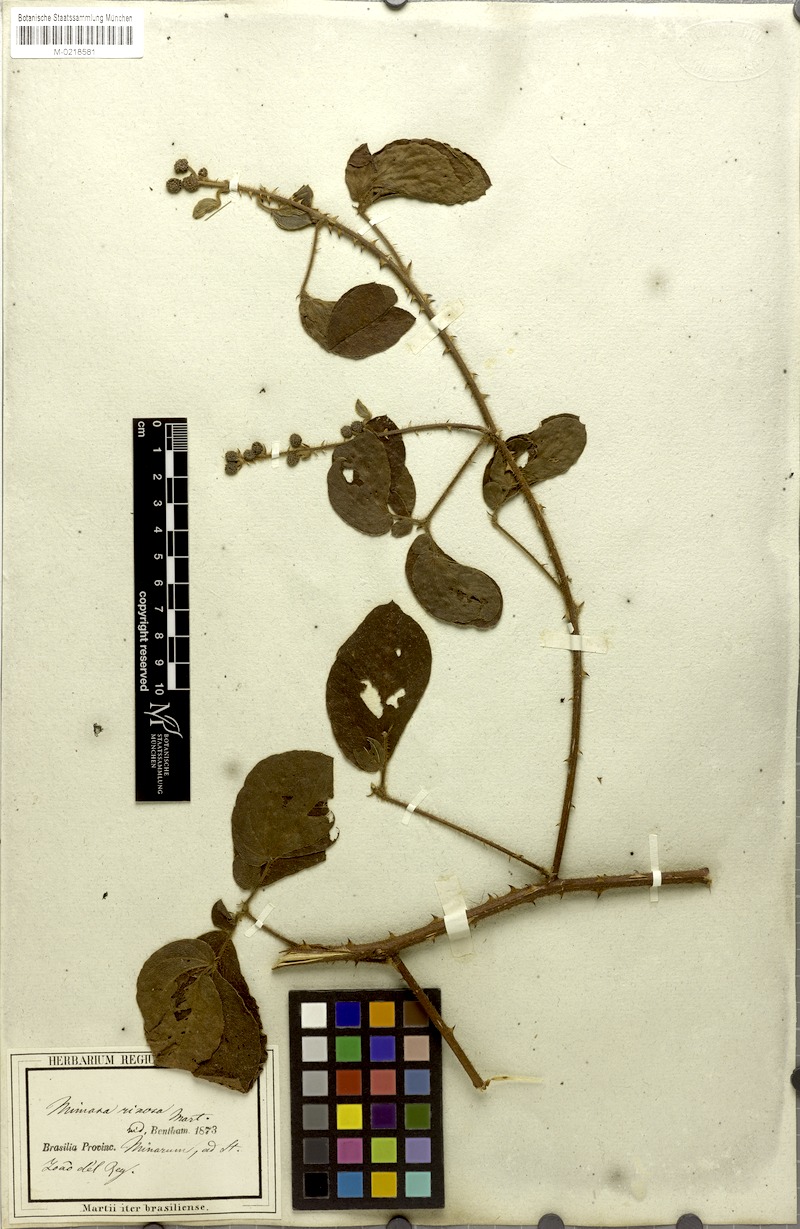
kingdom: Plantae
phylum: Tracheophyta
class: Magnoliopsida
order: Fabales
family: Fabaceae
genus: Mimosa
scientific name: Mimosa debilis
